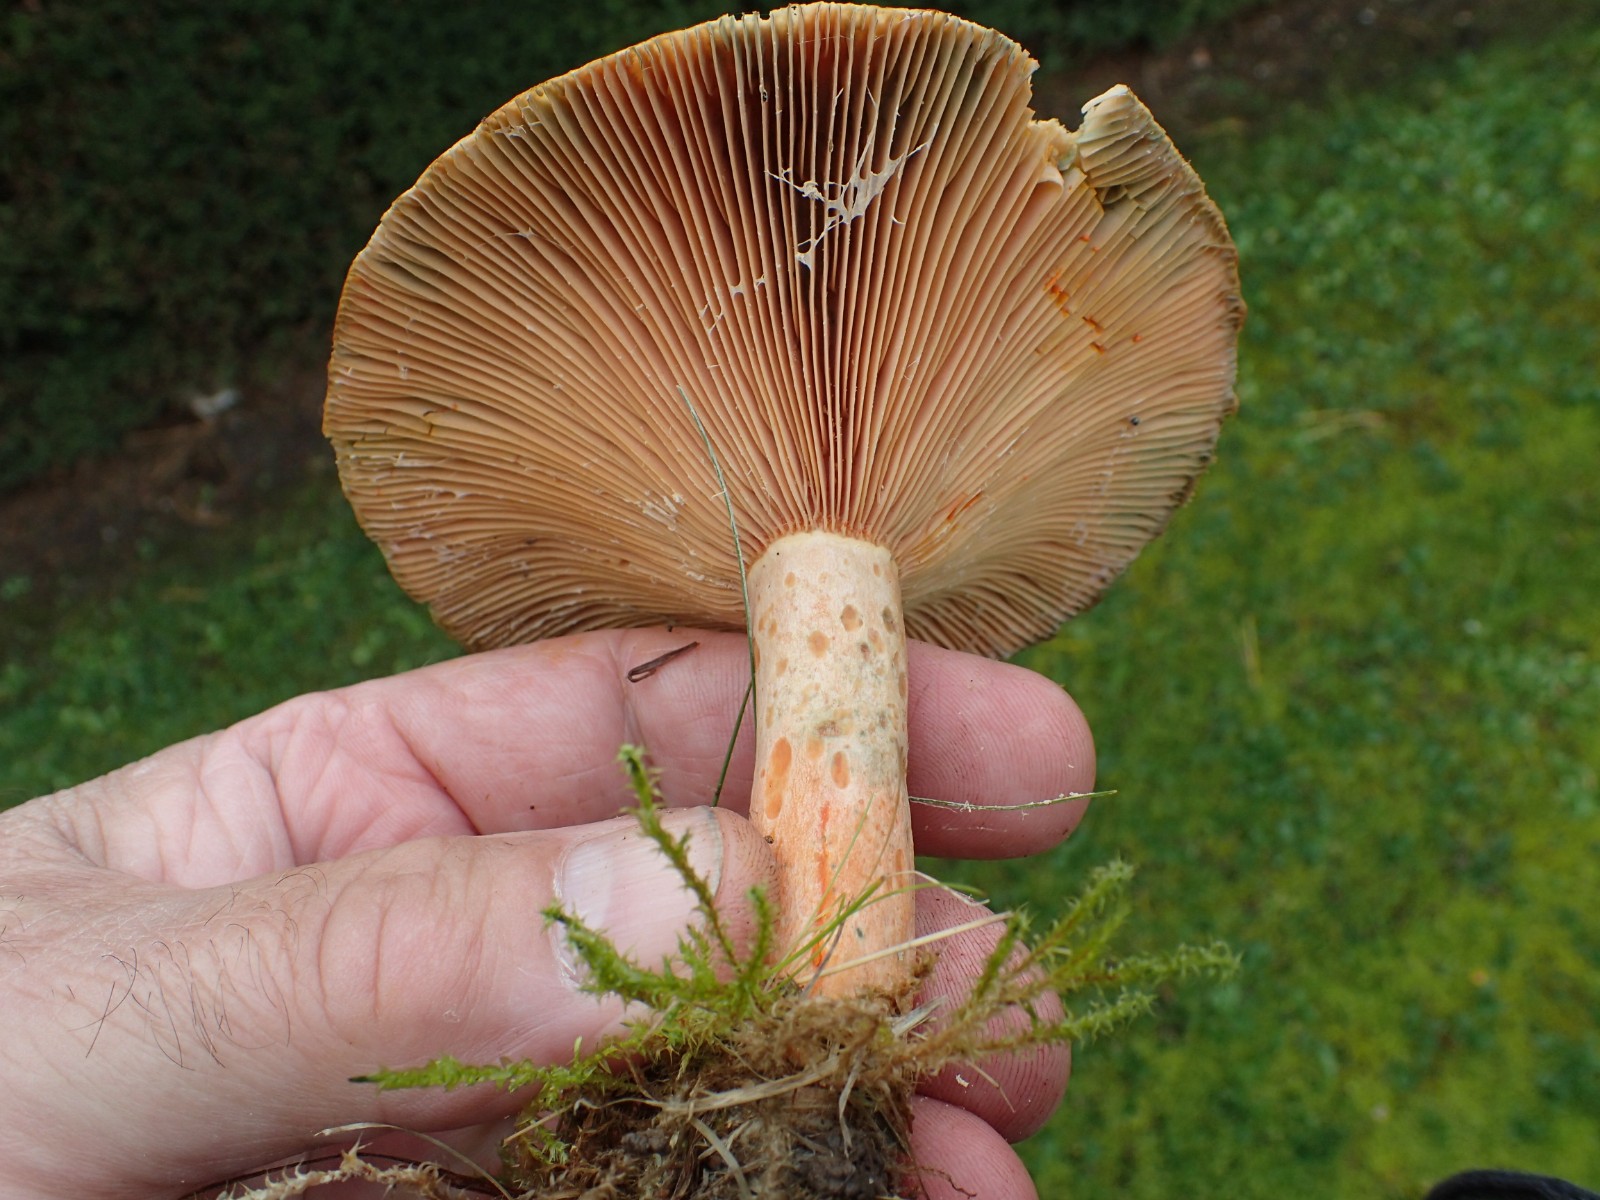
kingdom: Fungi
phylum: Basidiomycota
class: Agaricomycetes
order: Russulales
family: Russulaceae
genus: Lactarius
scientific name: Lactarius deliciosus
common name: velsmagende mælkehat
